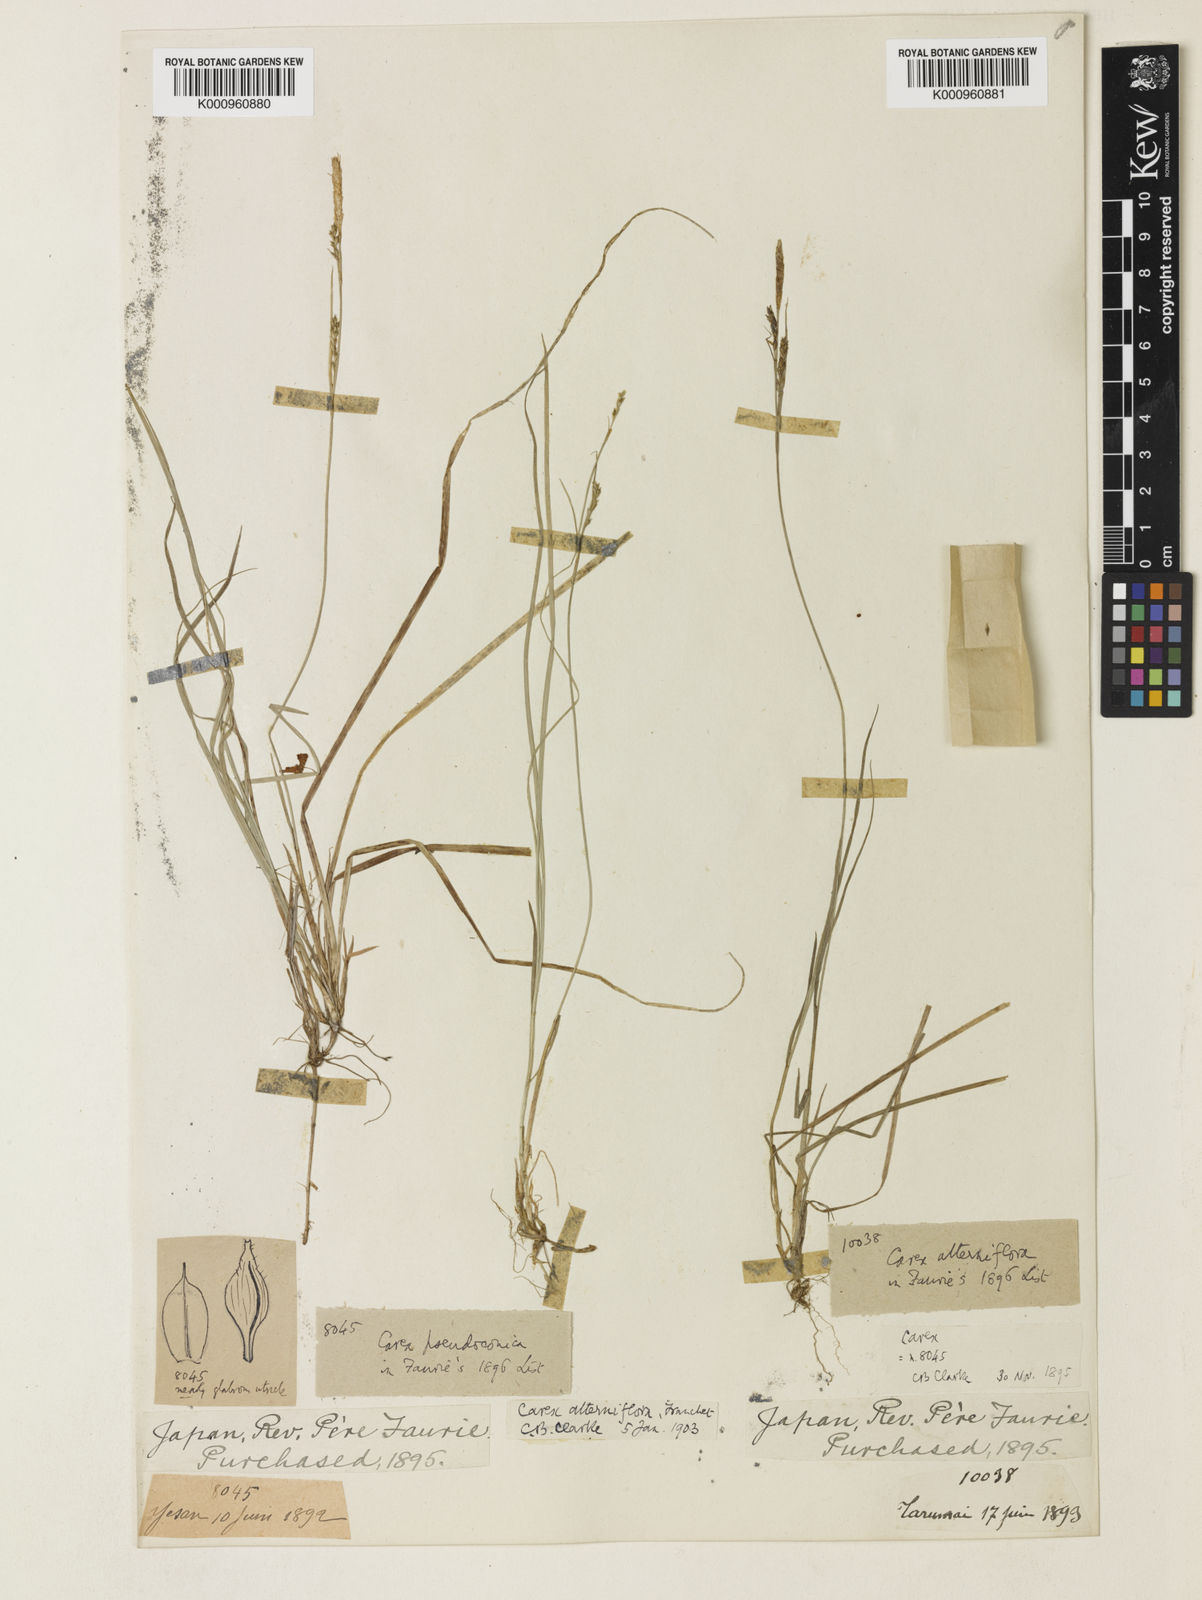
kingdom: Plantae
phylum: Tracheophyta
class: Liliopsida
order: Poales
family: Cyperaceae
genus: Carex
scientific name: Carex muricata
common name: Rough sedge
